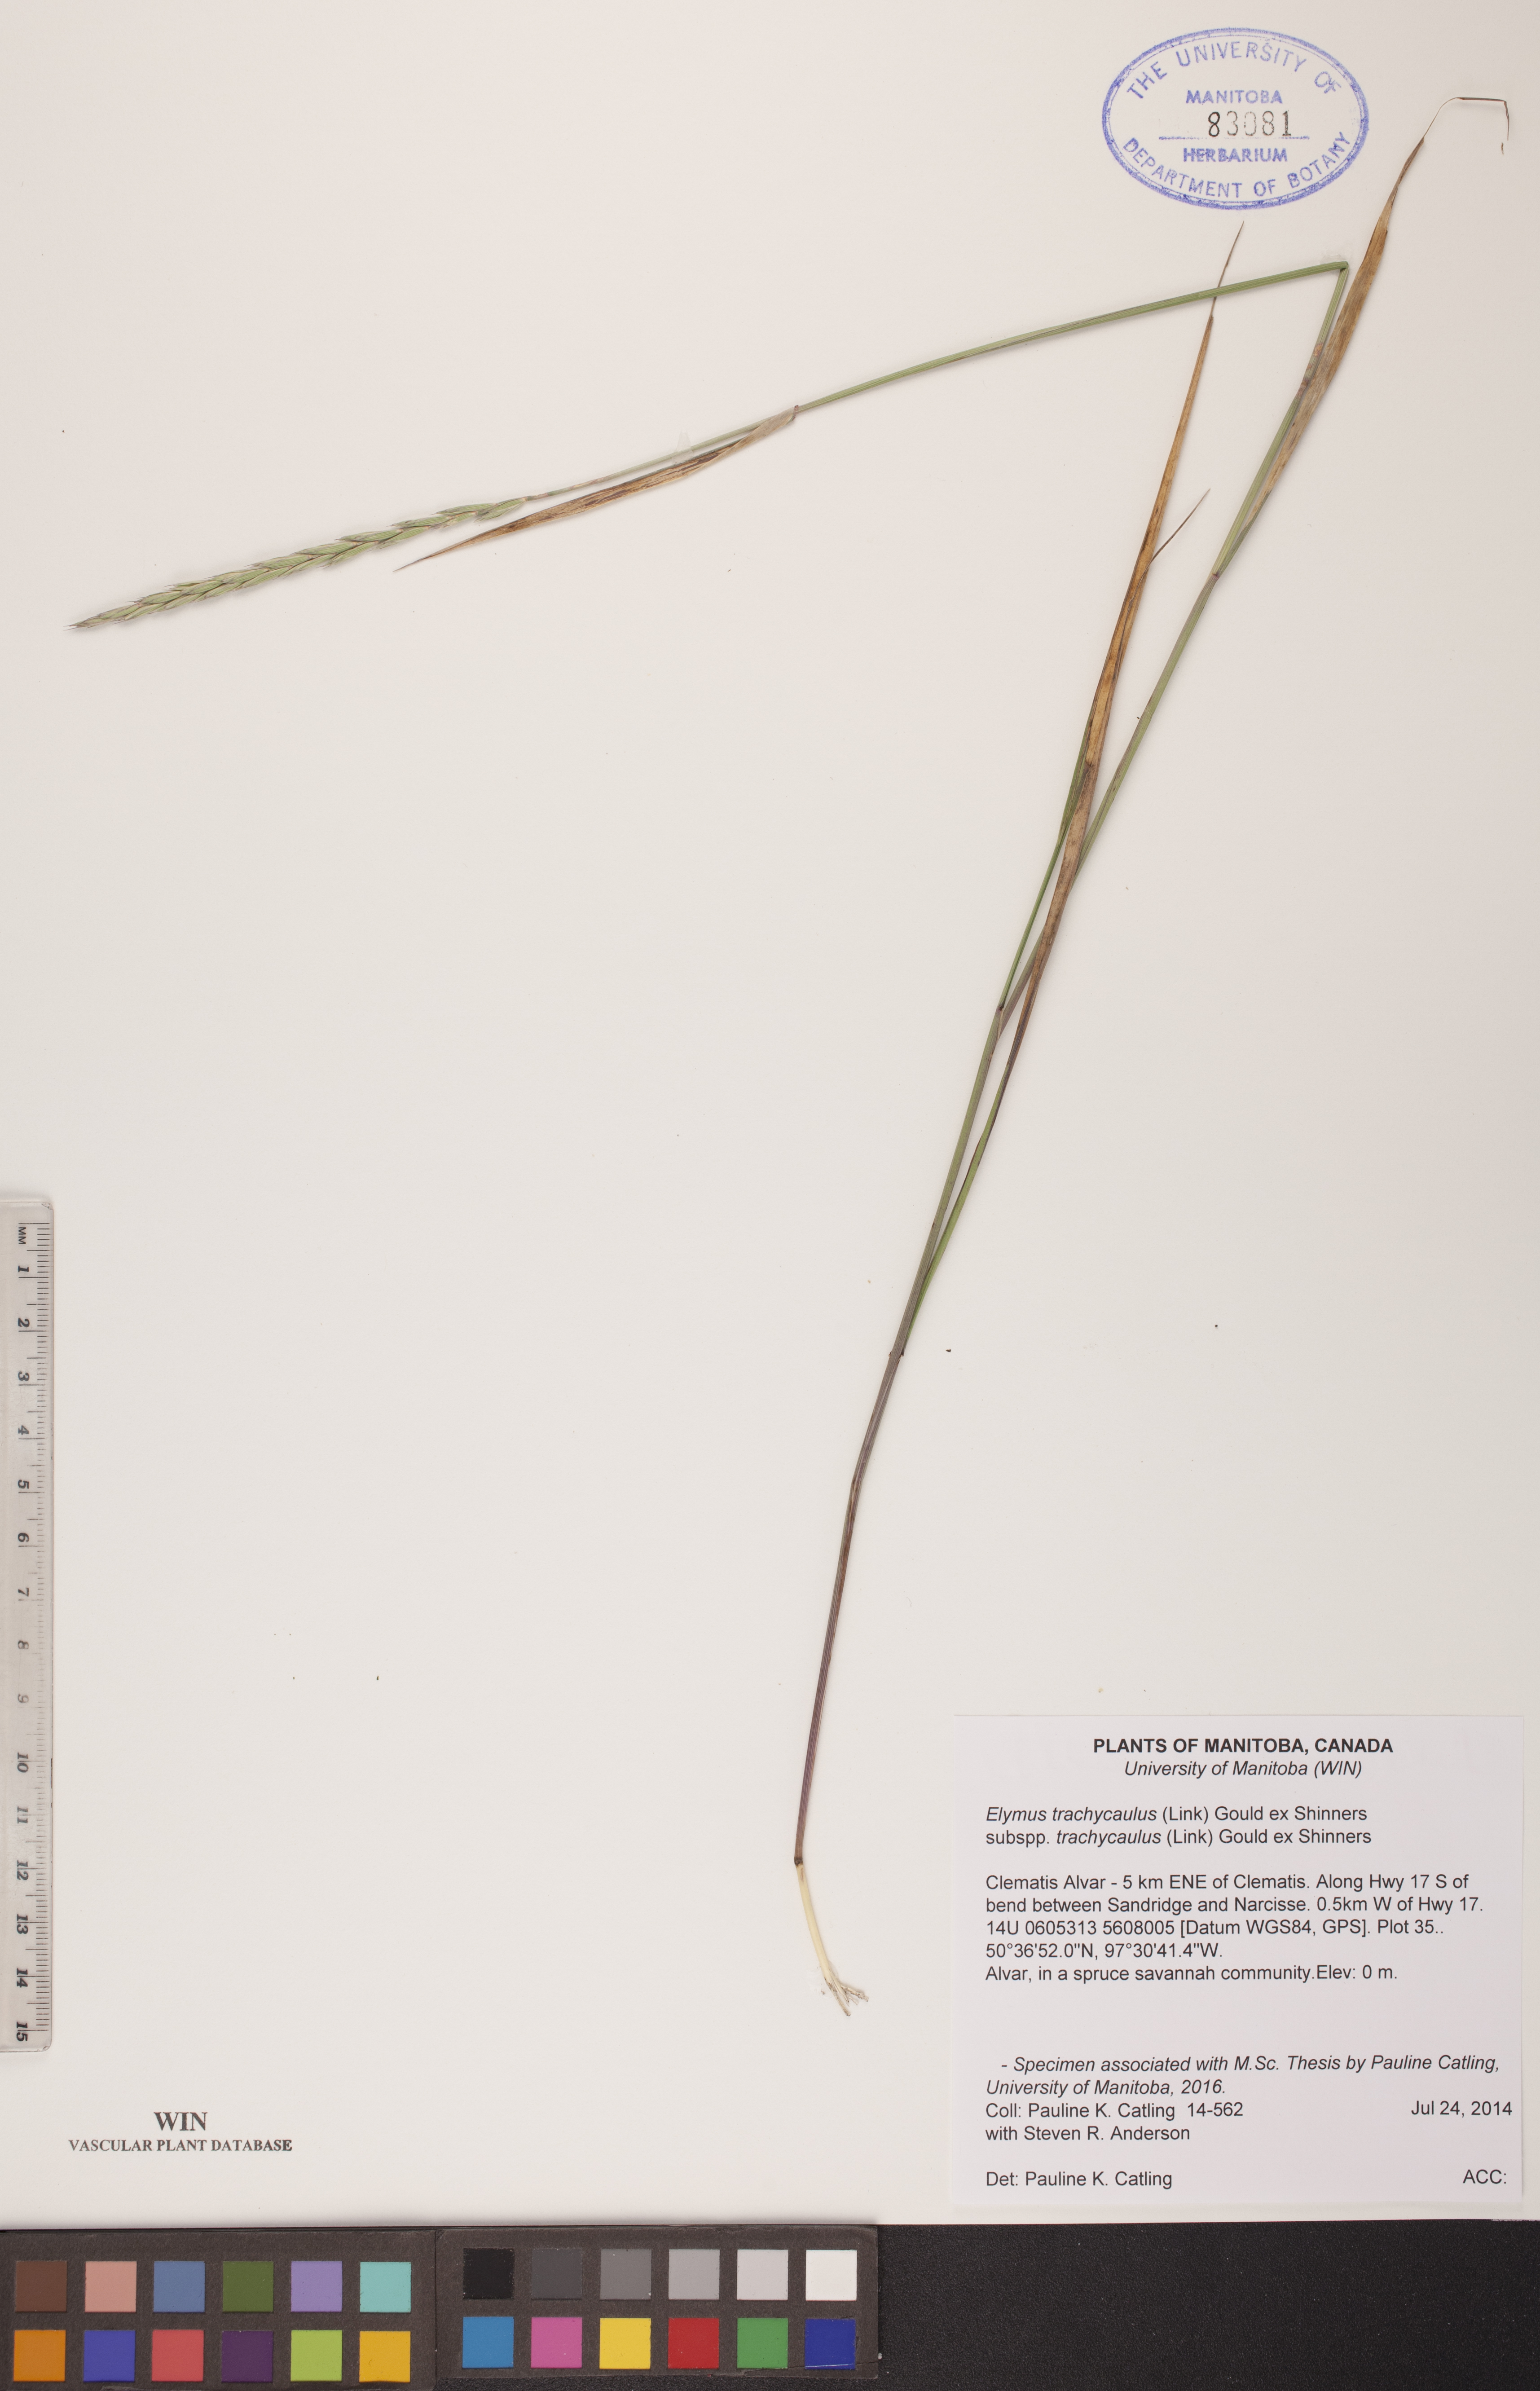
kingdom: Plantae
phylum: Tracheophyta
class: Liliopsida
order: Poales
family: Poaceae
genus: Elymus
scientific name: Elymus violaceus
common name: Arctic wheatgrass
